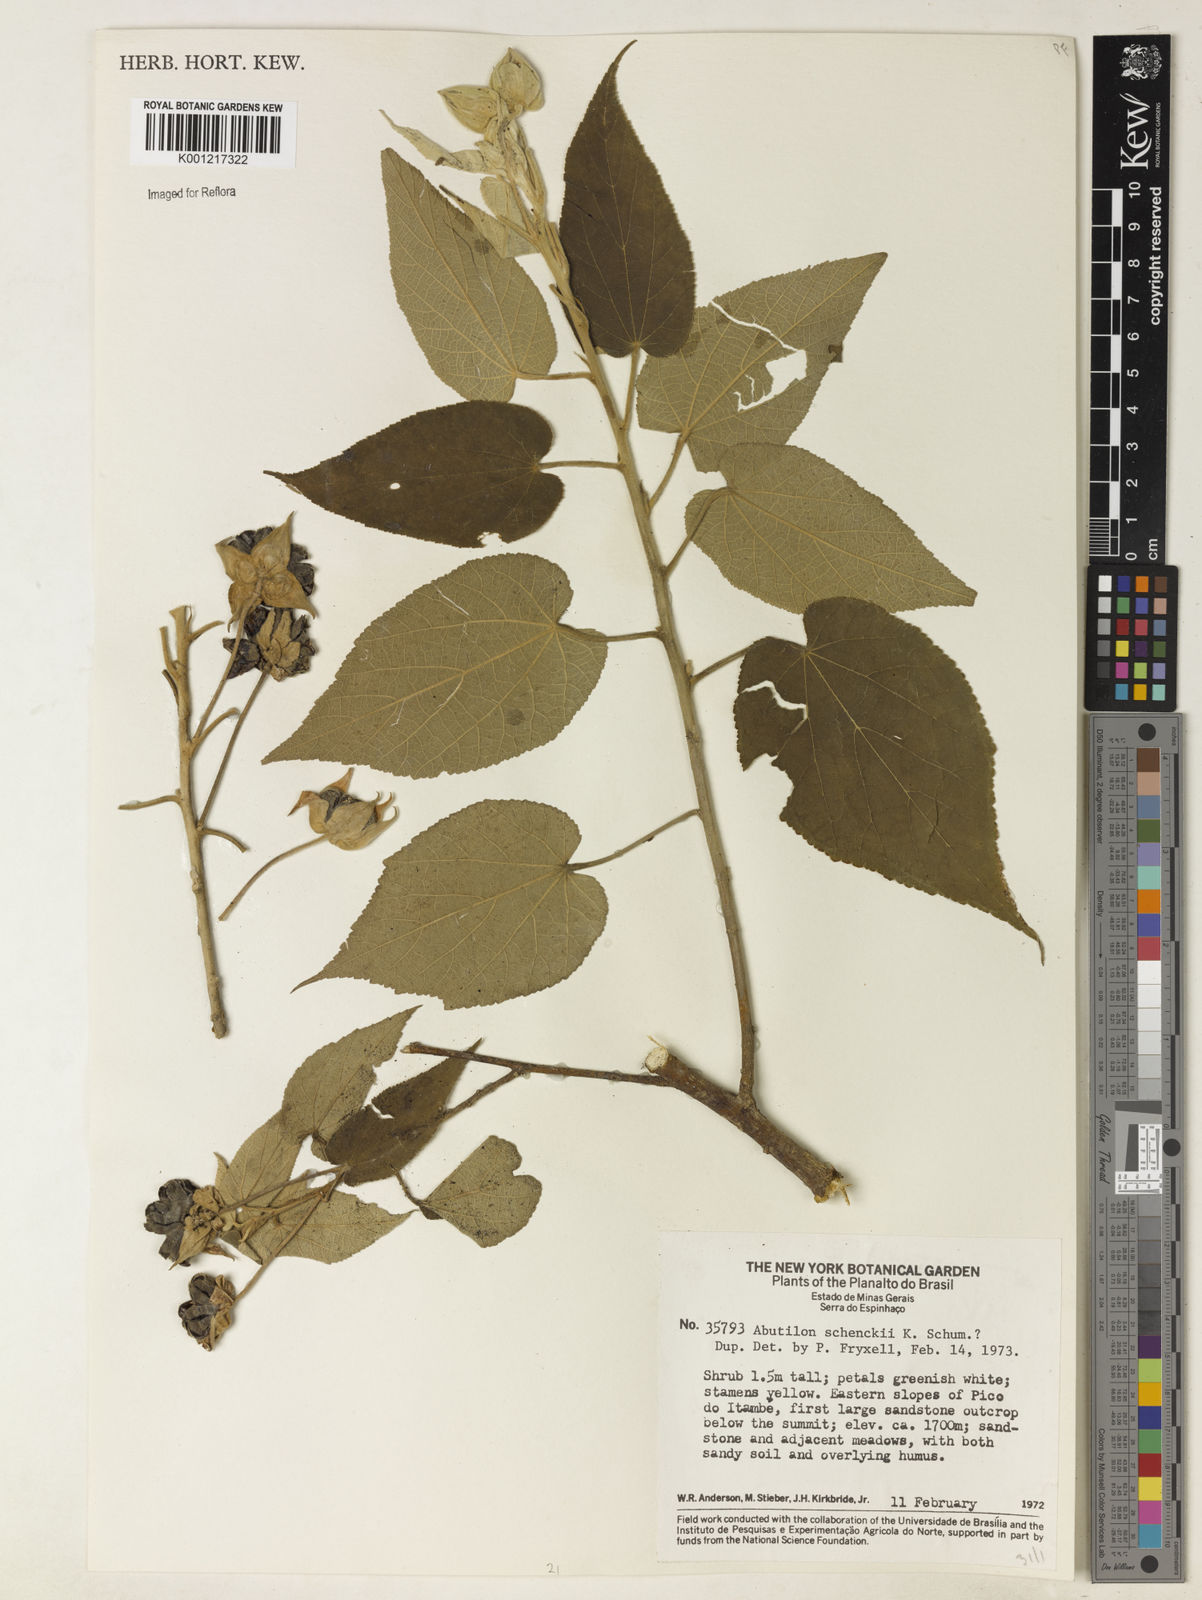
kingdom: Plantae
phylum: Tracheophyta
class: Magnoliopsida
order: Malvales
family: Malvaceae
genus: Callianthe
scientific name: Callianthe schenckii
